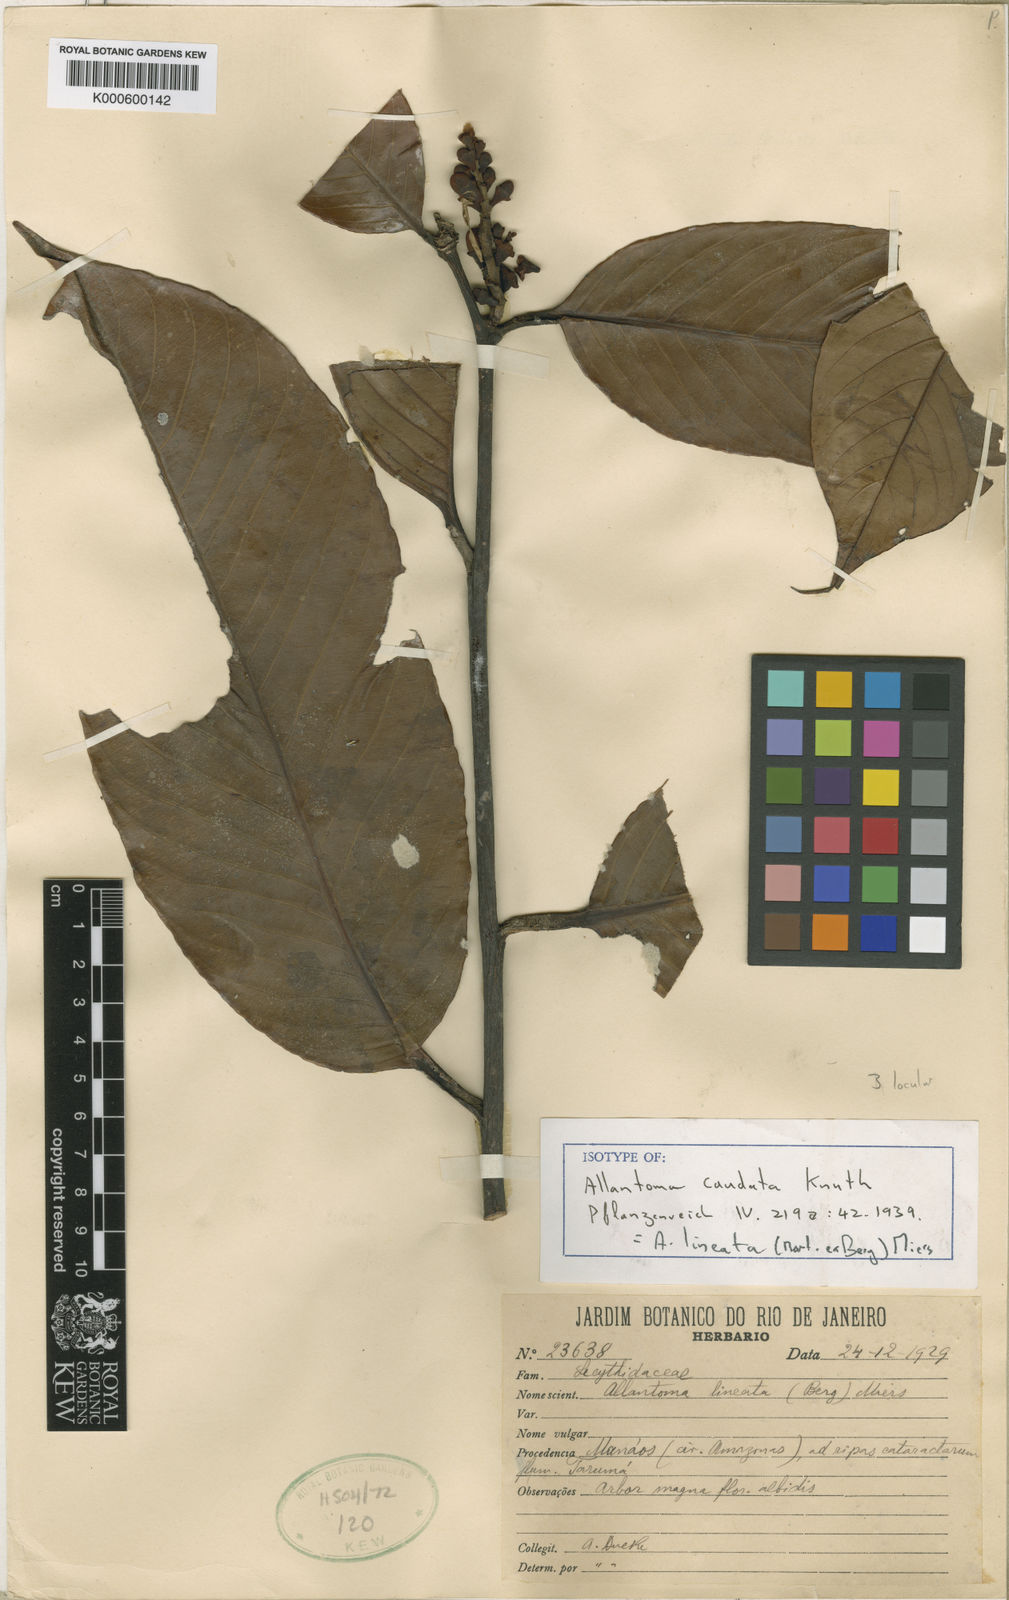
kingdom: Plantae
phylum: Tracheophyta
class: Magnoliopsida
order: Ericales
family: Lecythidaceae
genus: Allantoma
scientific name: Allantoma lineata
